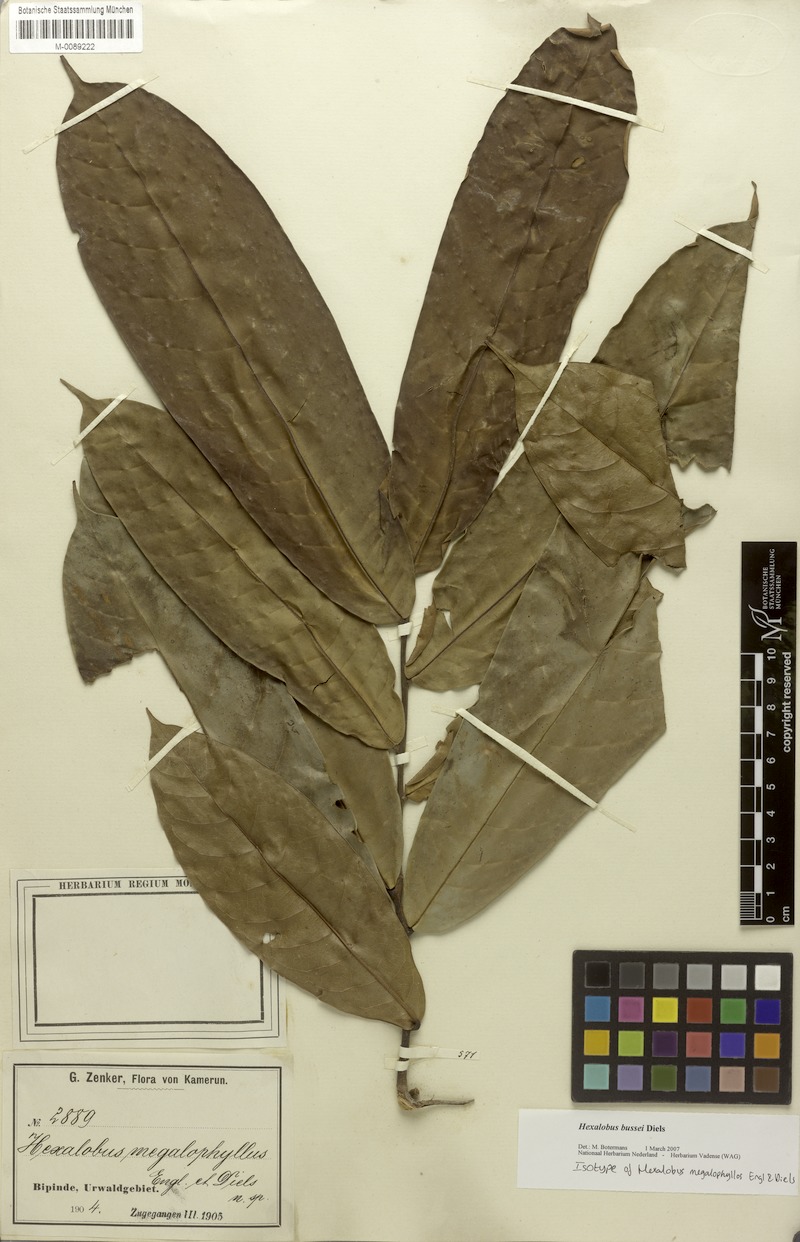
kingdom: Plantae
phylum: Tracheophyta
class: Magnoliopsida
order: Magnoliales
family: Annonaceae
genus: Hexalobus
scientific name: Hexalobus bussei
